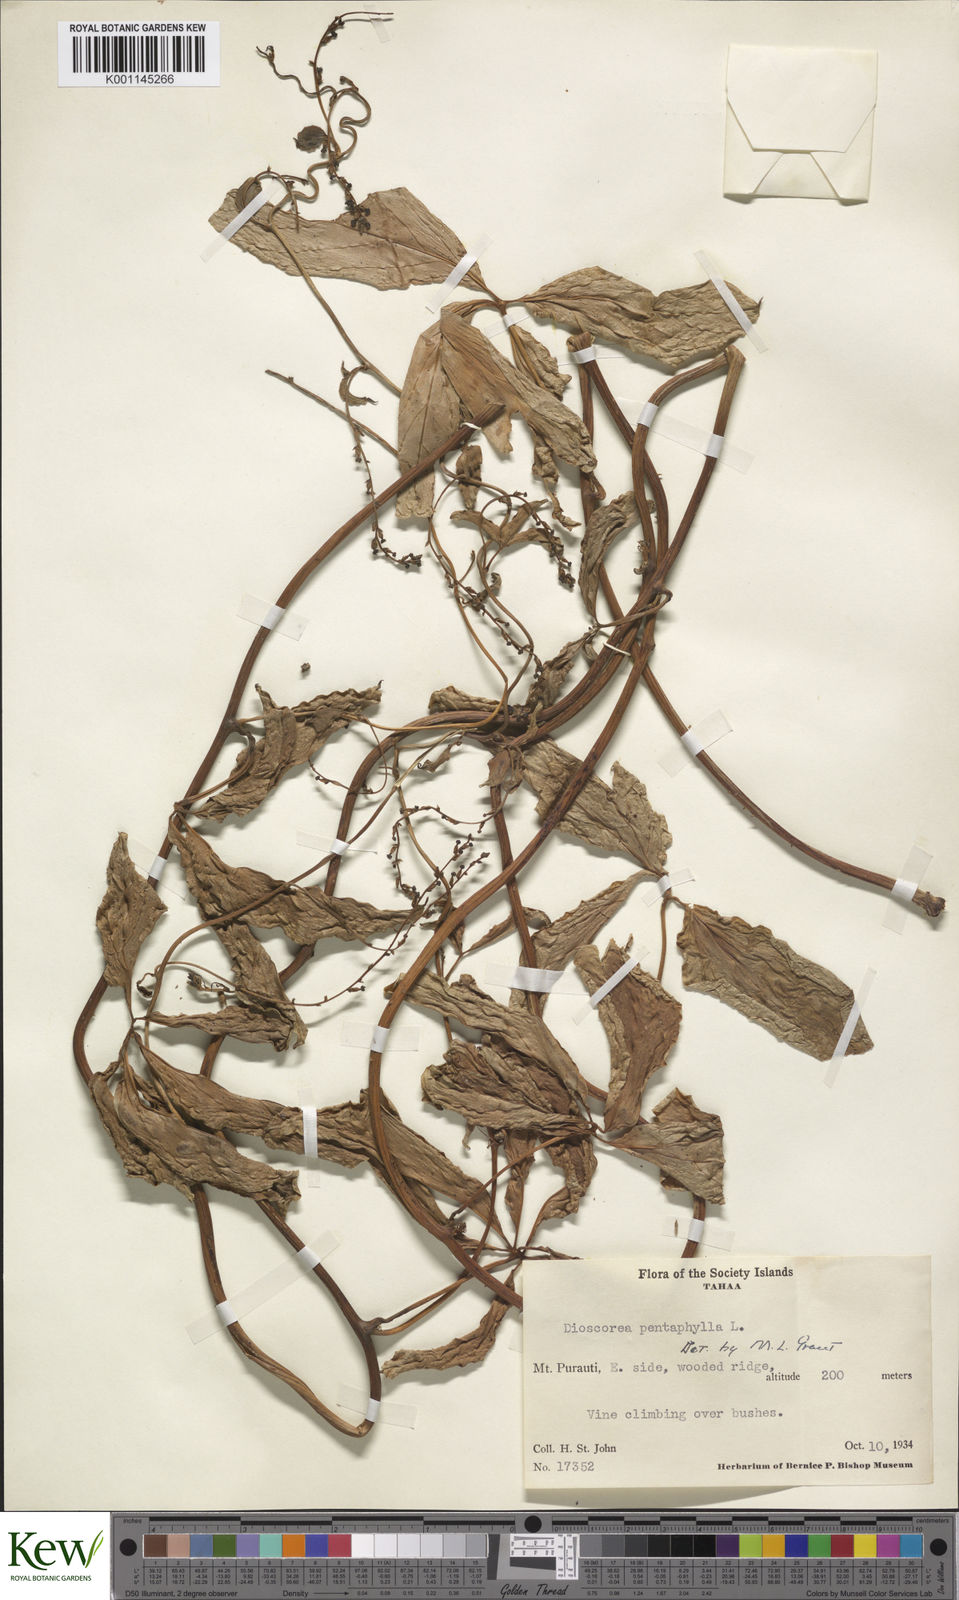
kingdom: Plantae
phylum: Tracheophyta
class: Liliopsida
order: Dioscoreales
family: Dioscoreaceae
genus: Dioscorea
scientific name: Dioscorea pentaphylla
